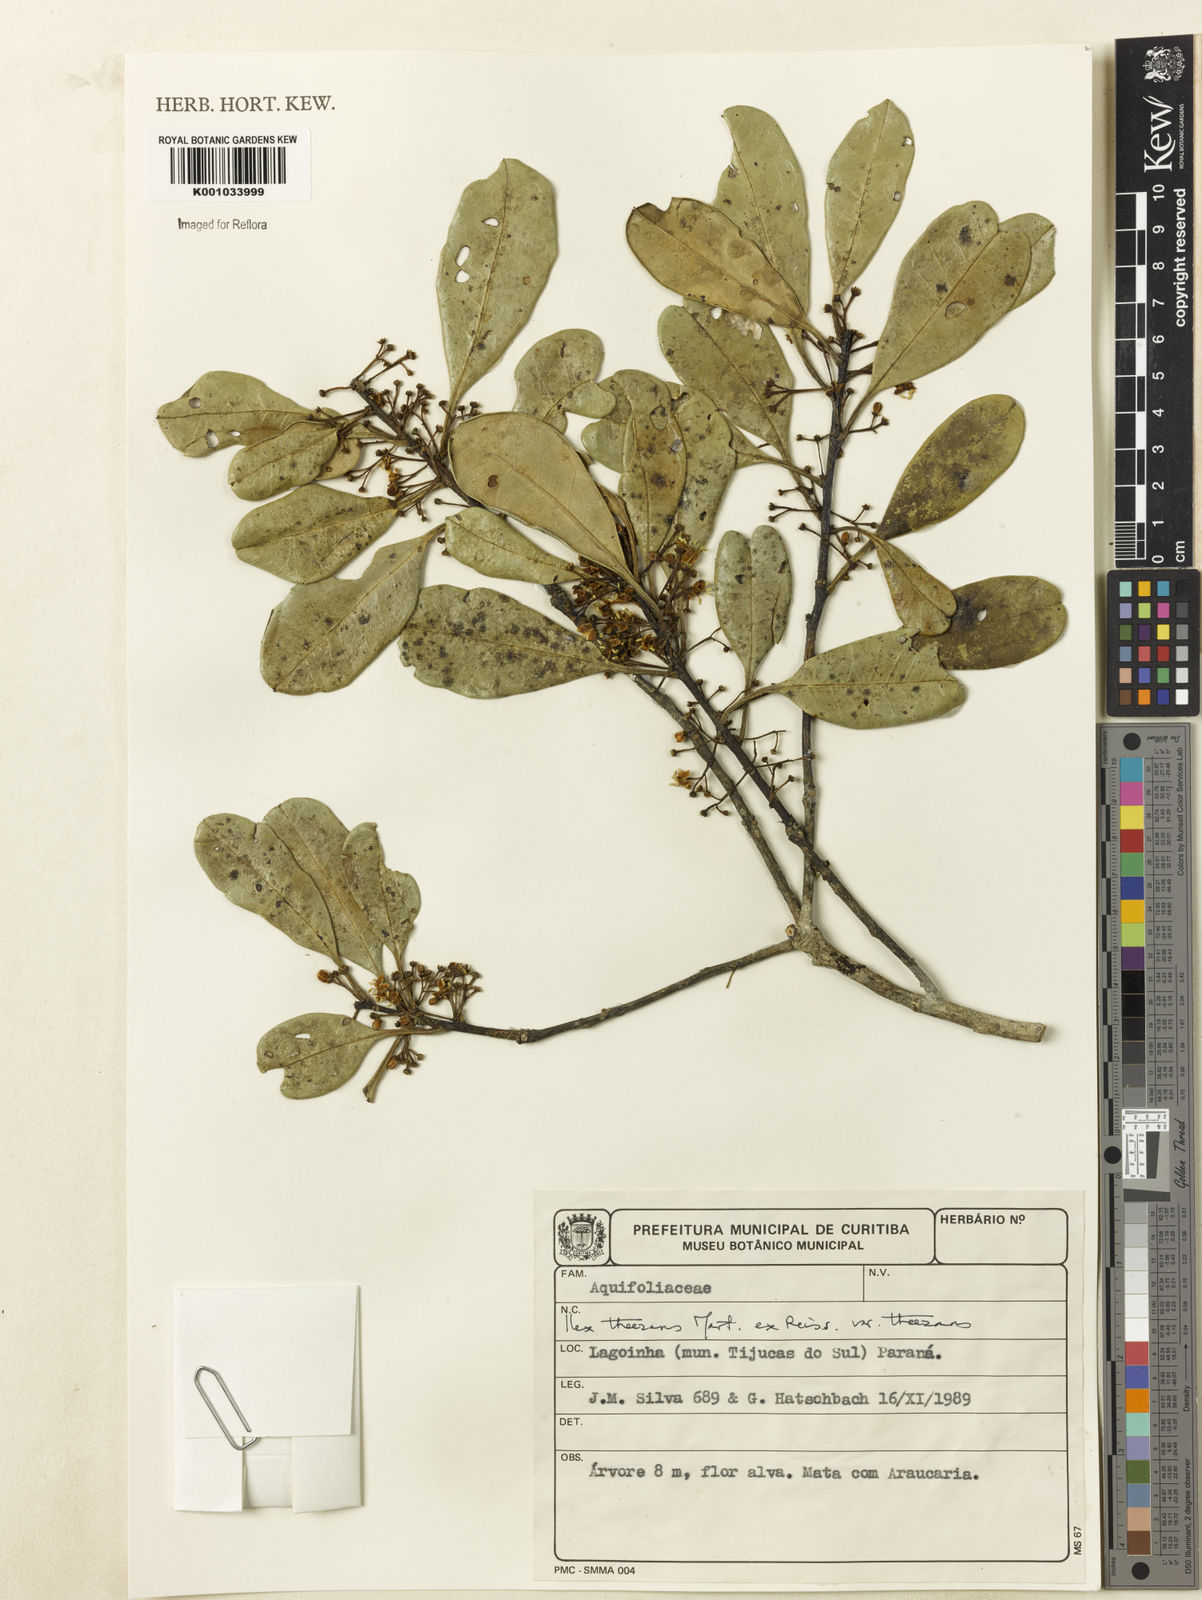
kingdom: Plantae
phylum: Tracheophyta
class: Magnoliopsida
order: Aquifoliales
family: Aquifoliaceae
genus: Ilex
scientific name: Ilex
